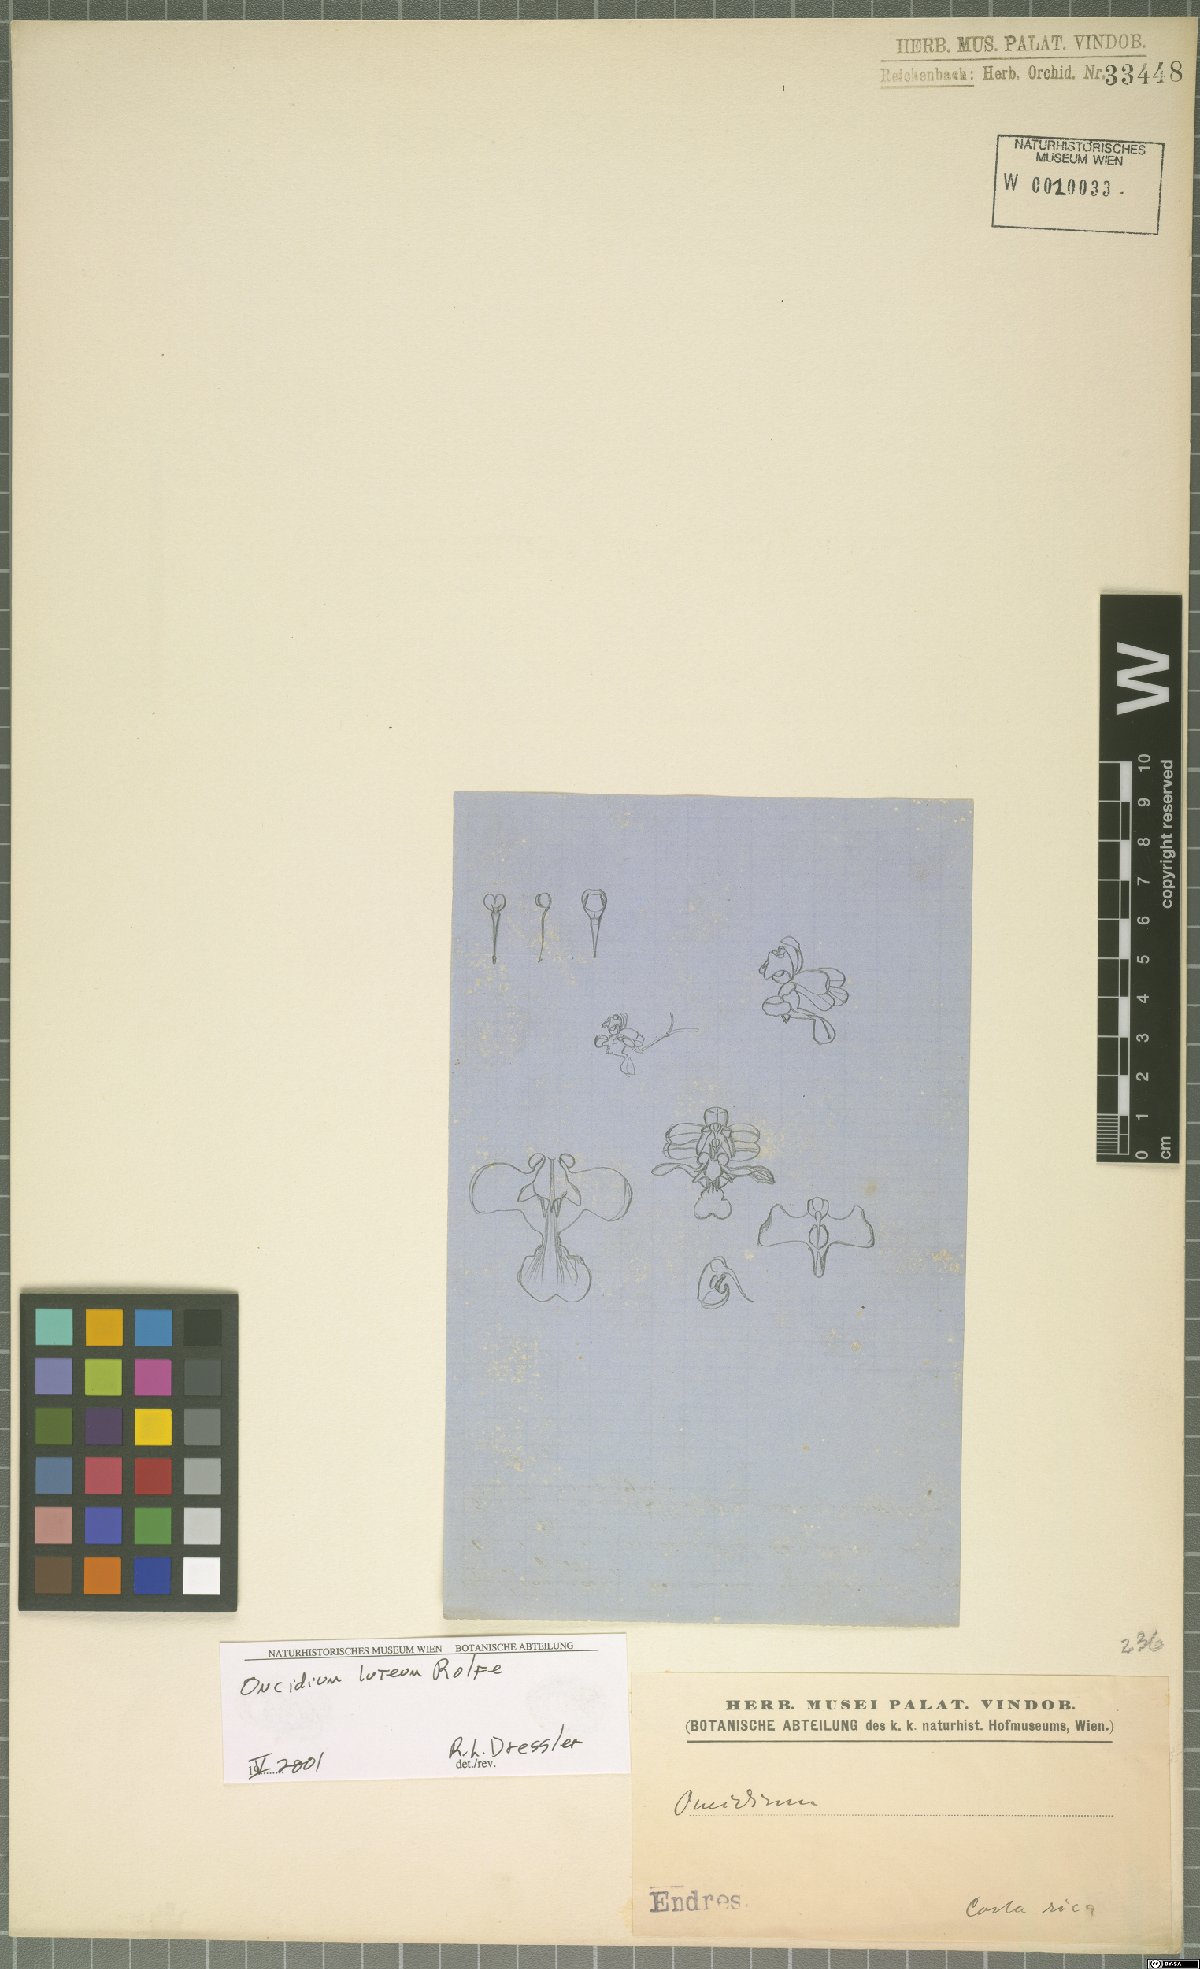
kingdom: Plantae
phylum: Tracheophyta
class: Liliopsida
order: Asparagales
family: Orchidaceae
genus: Oncidium
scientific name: Oncidium luteum
